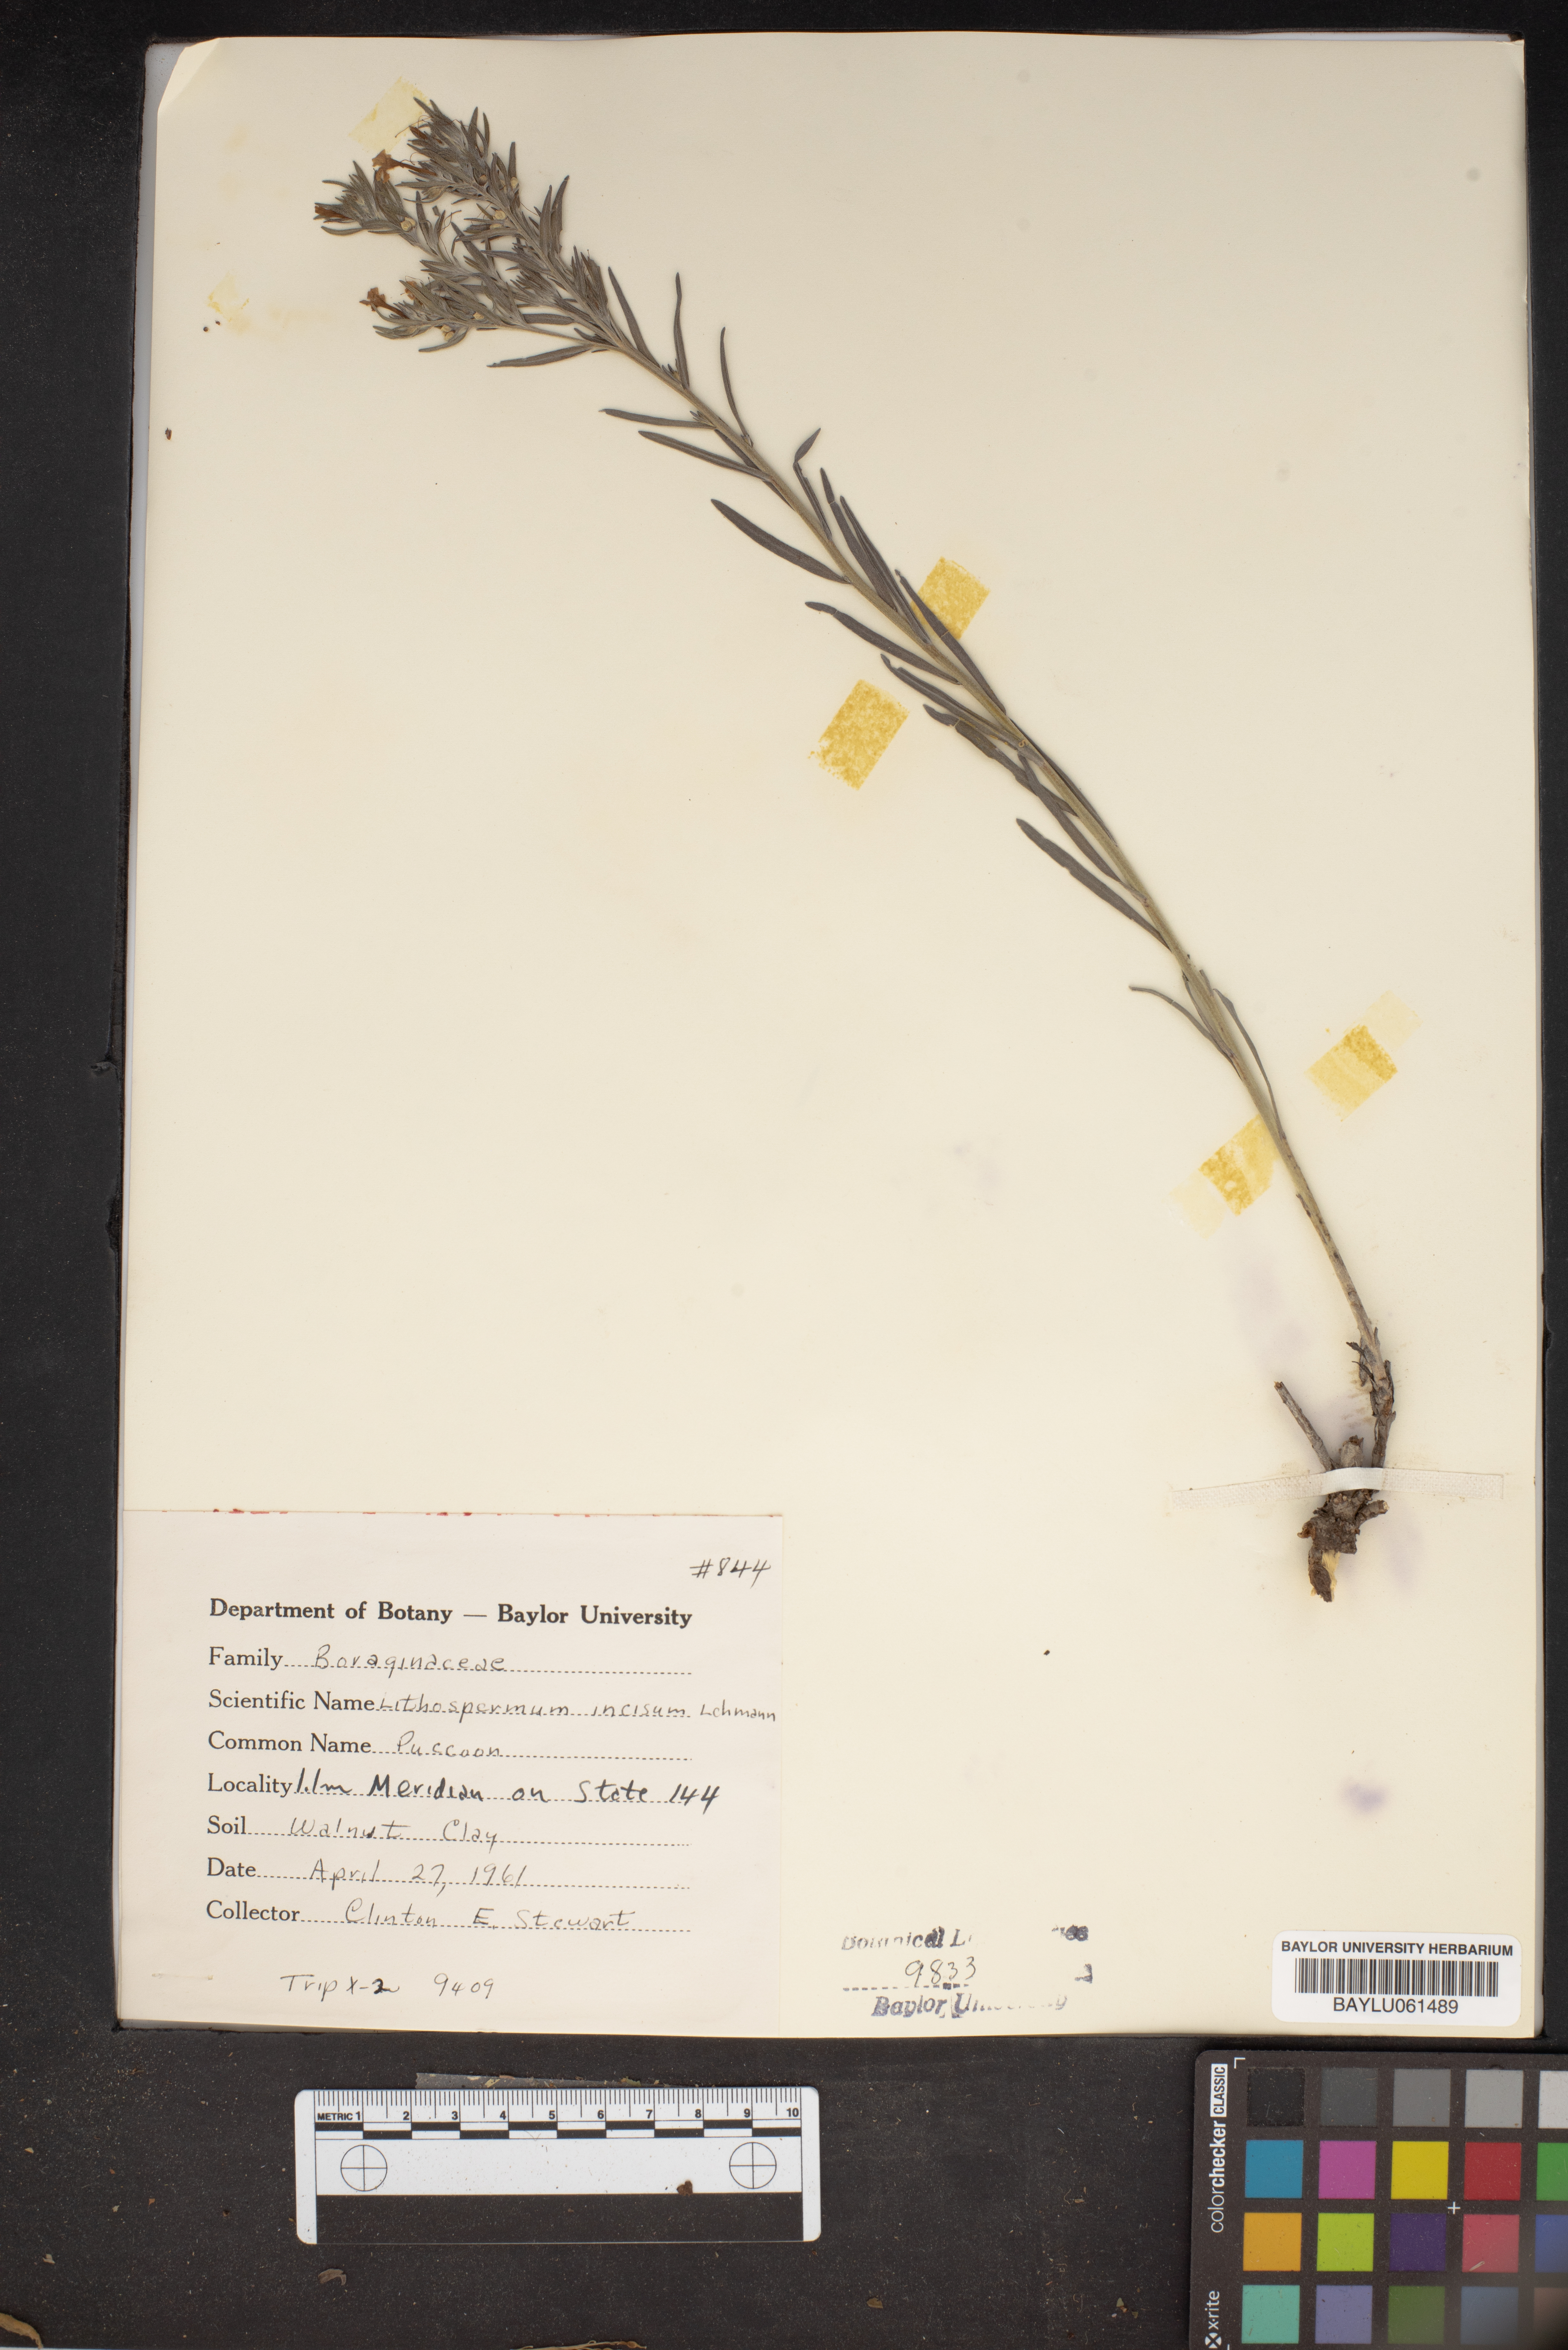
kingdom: Plantae
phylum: Tracheophyta
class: Magnoliopsida
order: Boraginales
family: Boraginaceae
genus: Lithospermum
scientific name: Lithospermum incisum
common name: Fringed gromwell
